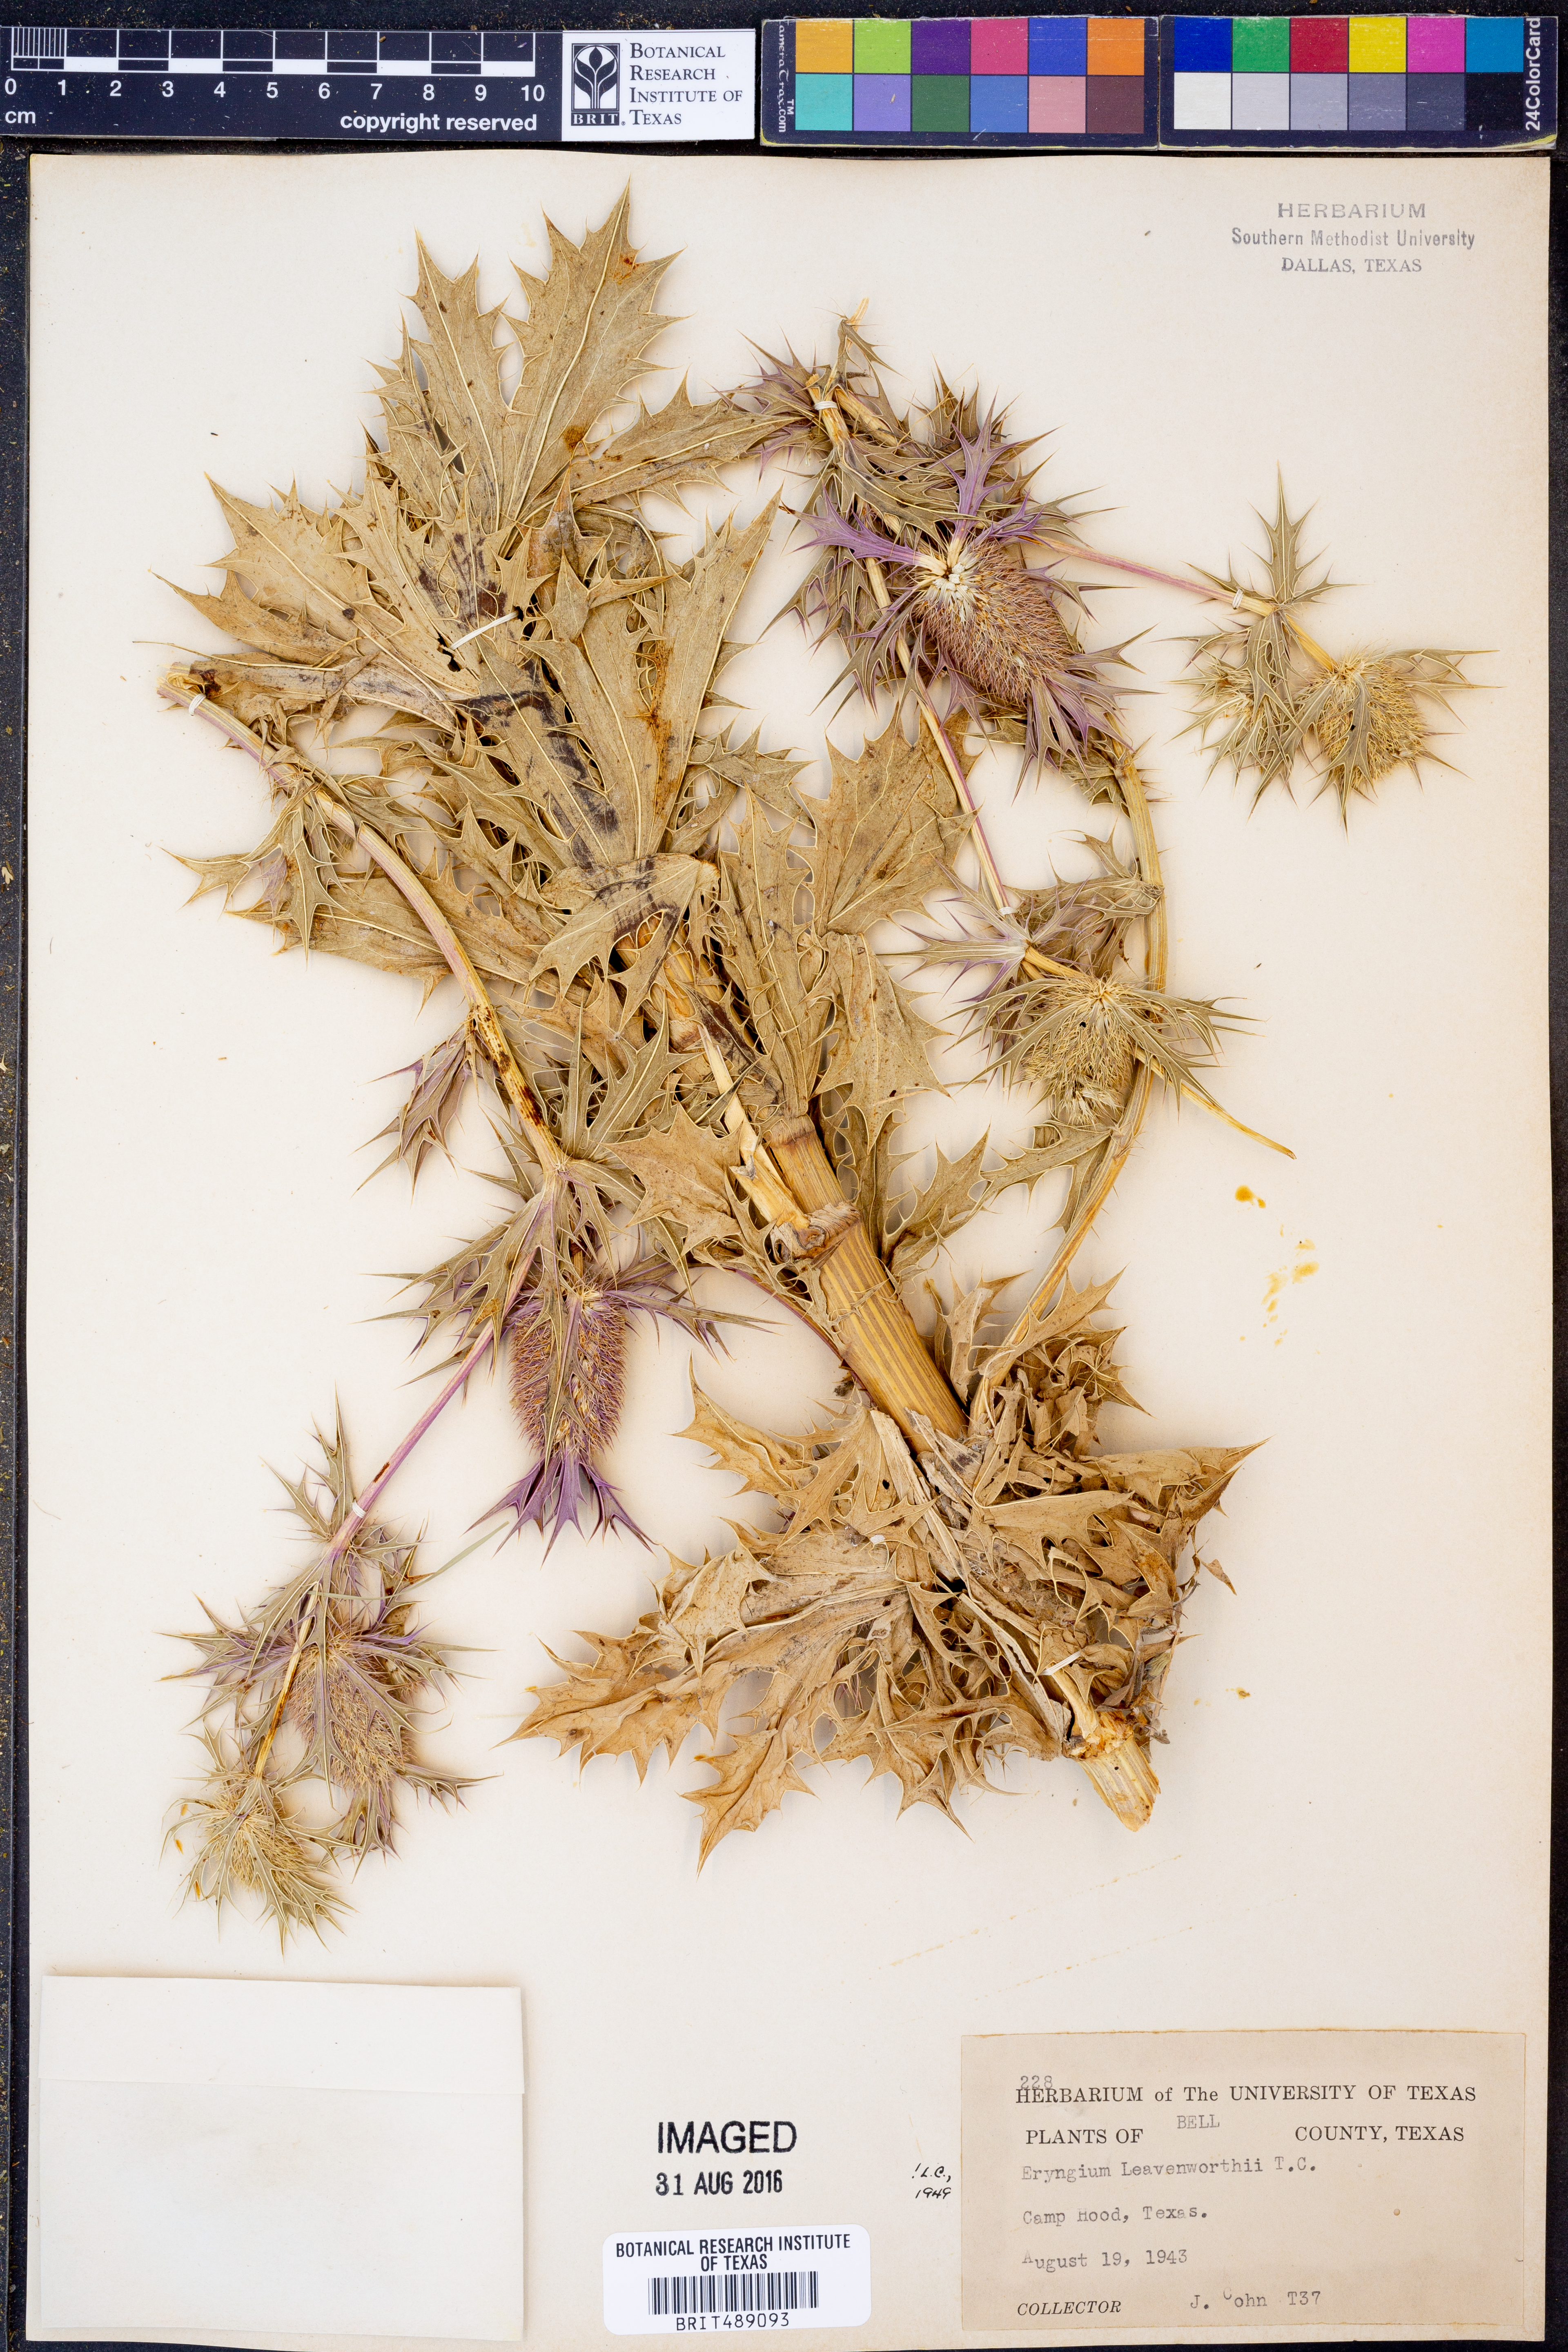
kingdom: Plantae
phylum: Tracheophyta
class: Magnoliopsida
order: Apiales
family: Apiaceae
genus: Eryngium
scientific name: Eryngium leavenworthii
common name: Leavenworth's eryngo
